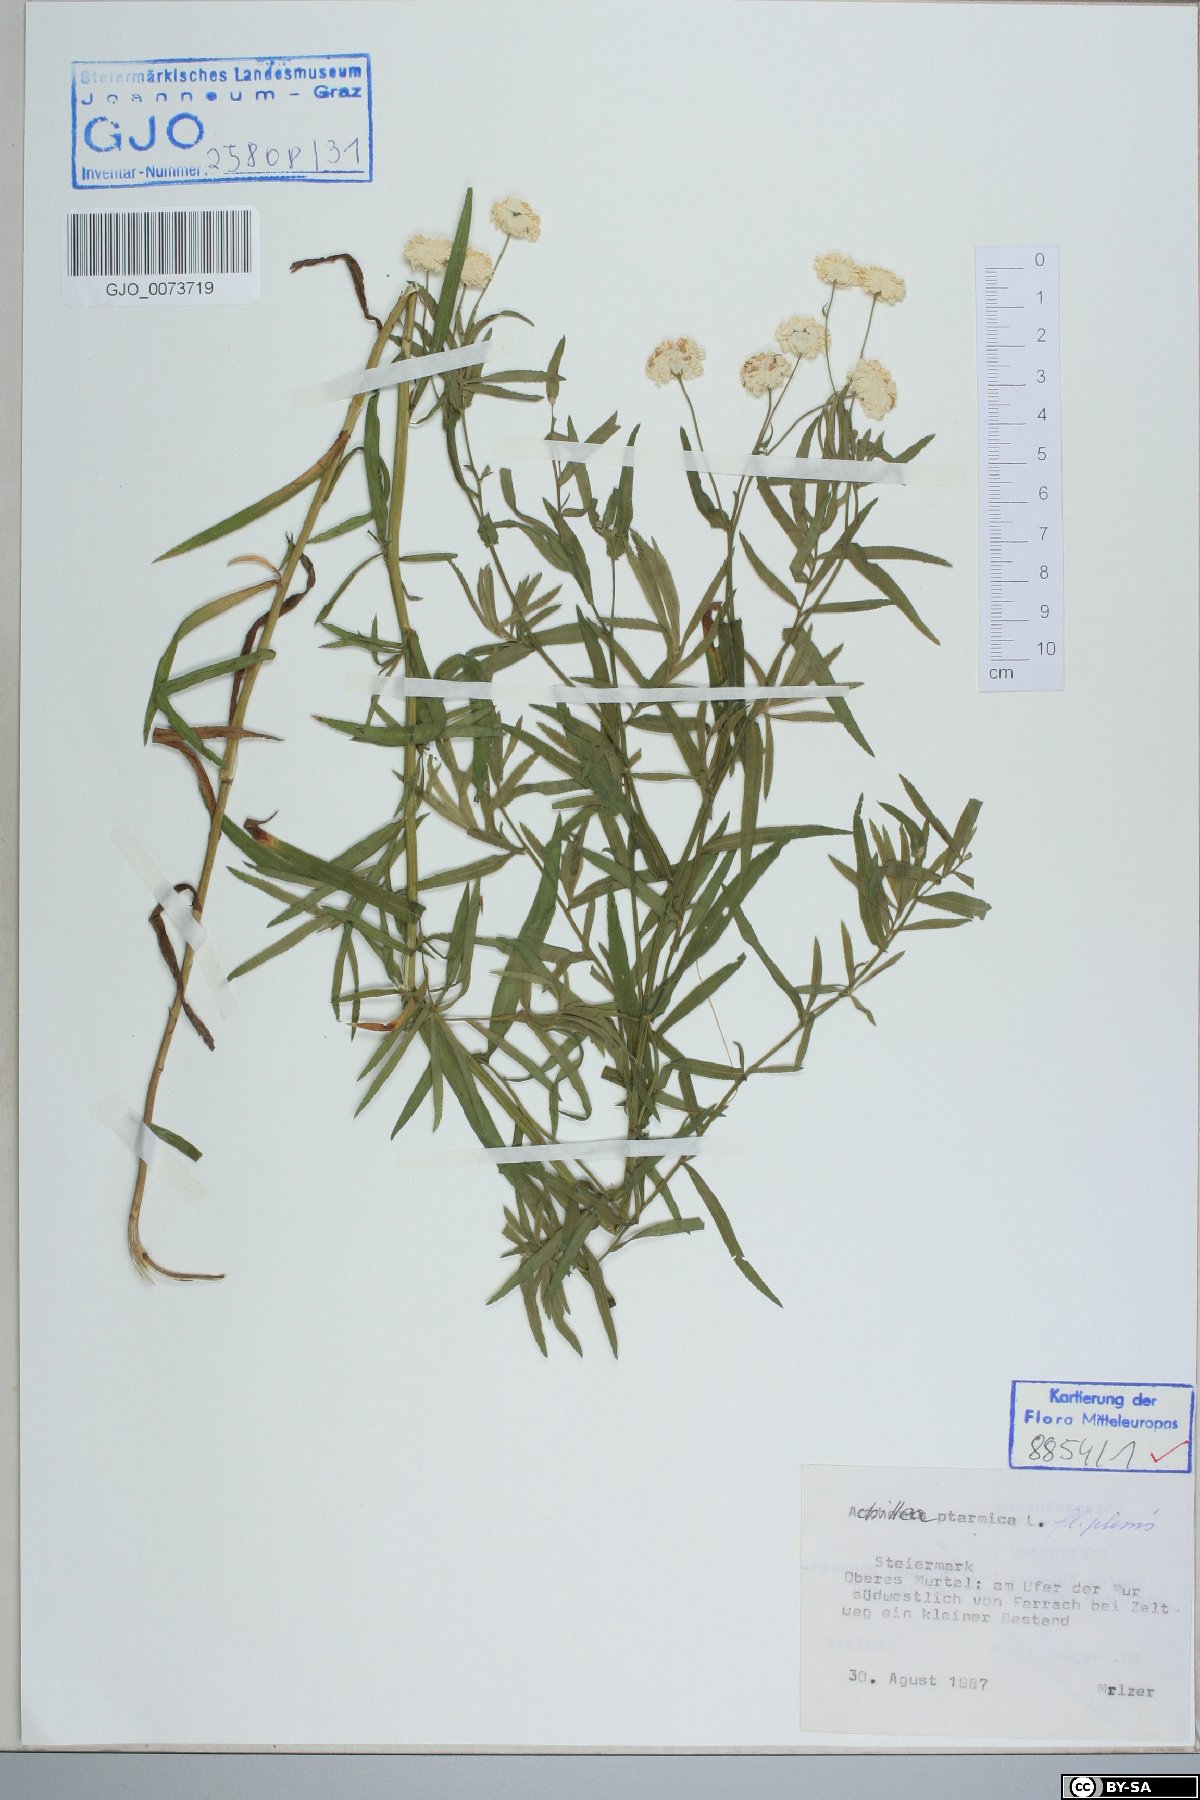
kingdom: Plantae
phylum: Tracheophyta
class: Magnoliopsida
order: Asterales
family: Asteraceae
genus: Achillea
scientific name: Achillea ptarmica
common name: Sneezeweed
